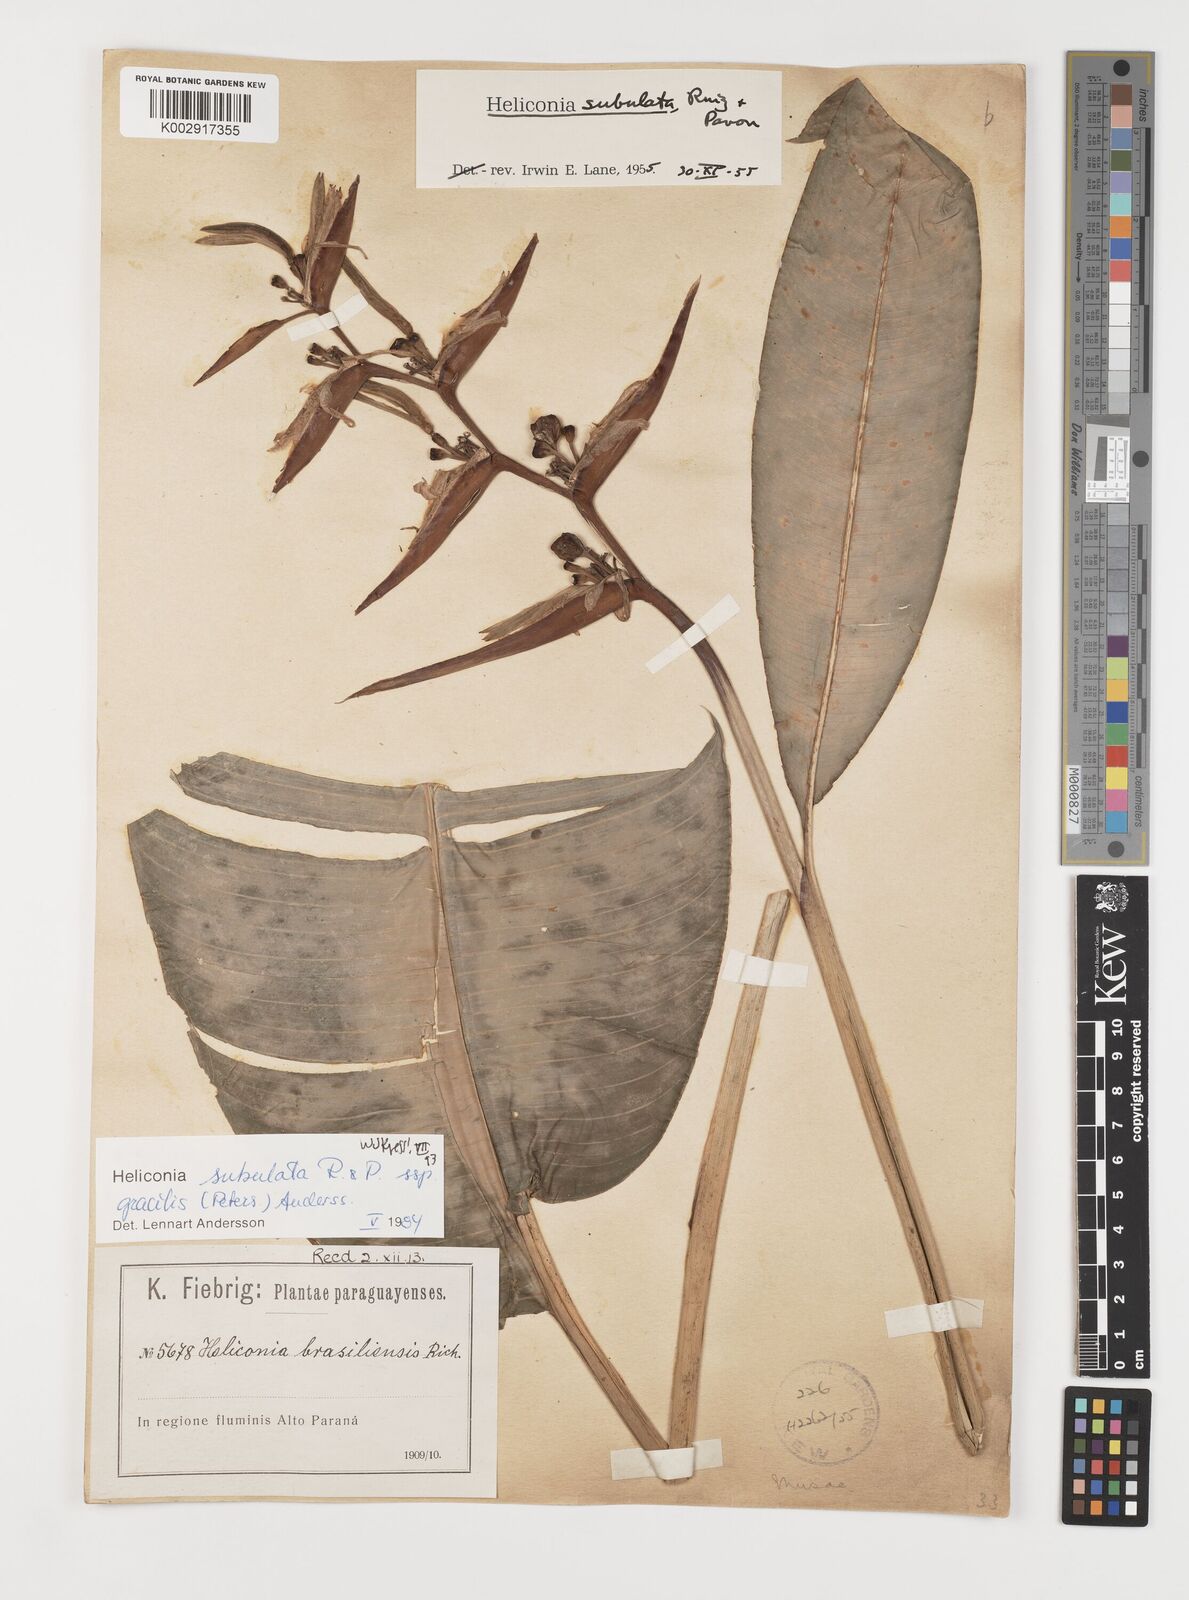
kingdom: Plantae
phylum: Tracheophyta
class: Liliopsida
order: Zingiberales
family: Heliconiaceae
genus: Heliconia
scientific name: Heliconia subulata
